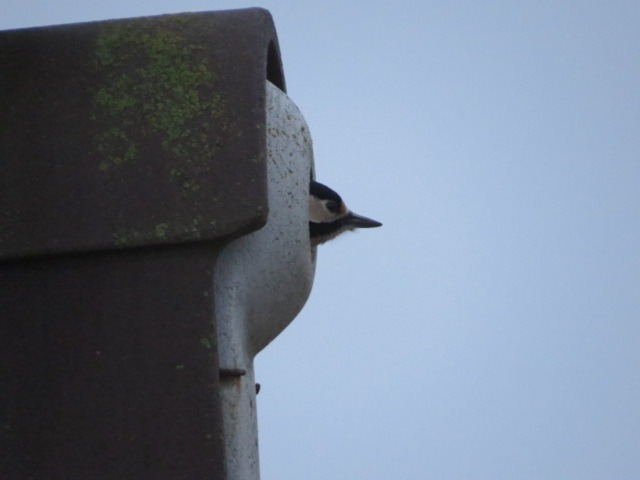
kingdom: Animalia
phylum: Chordata
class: Aves
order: Piciformes
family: Picidae
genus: Dendrocopos
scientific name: Dendrocopos major
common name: Stor flagspætte
